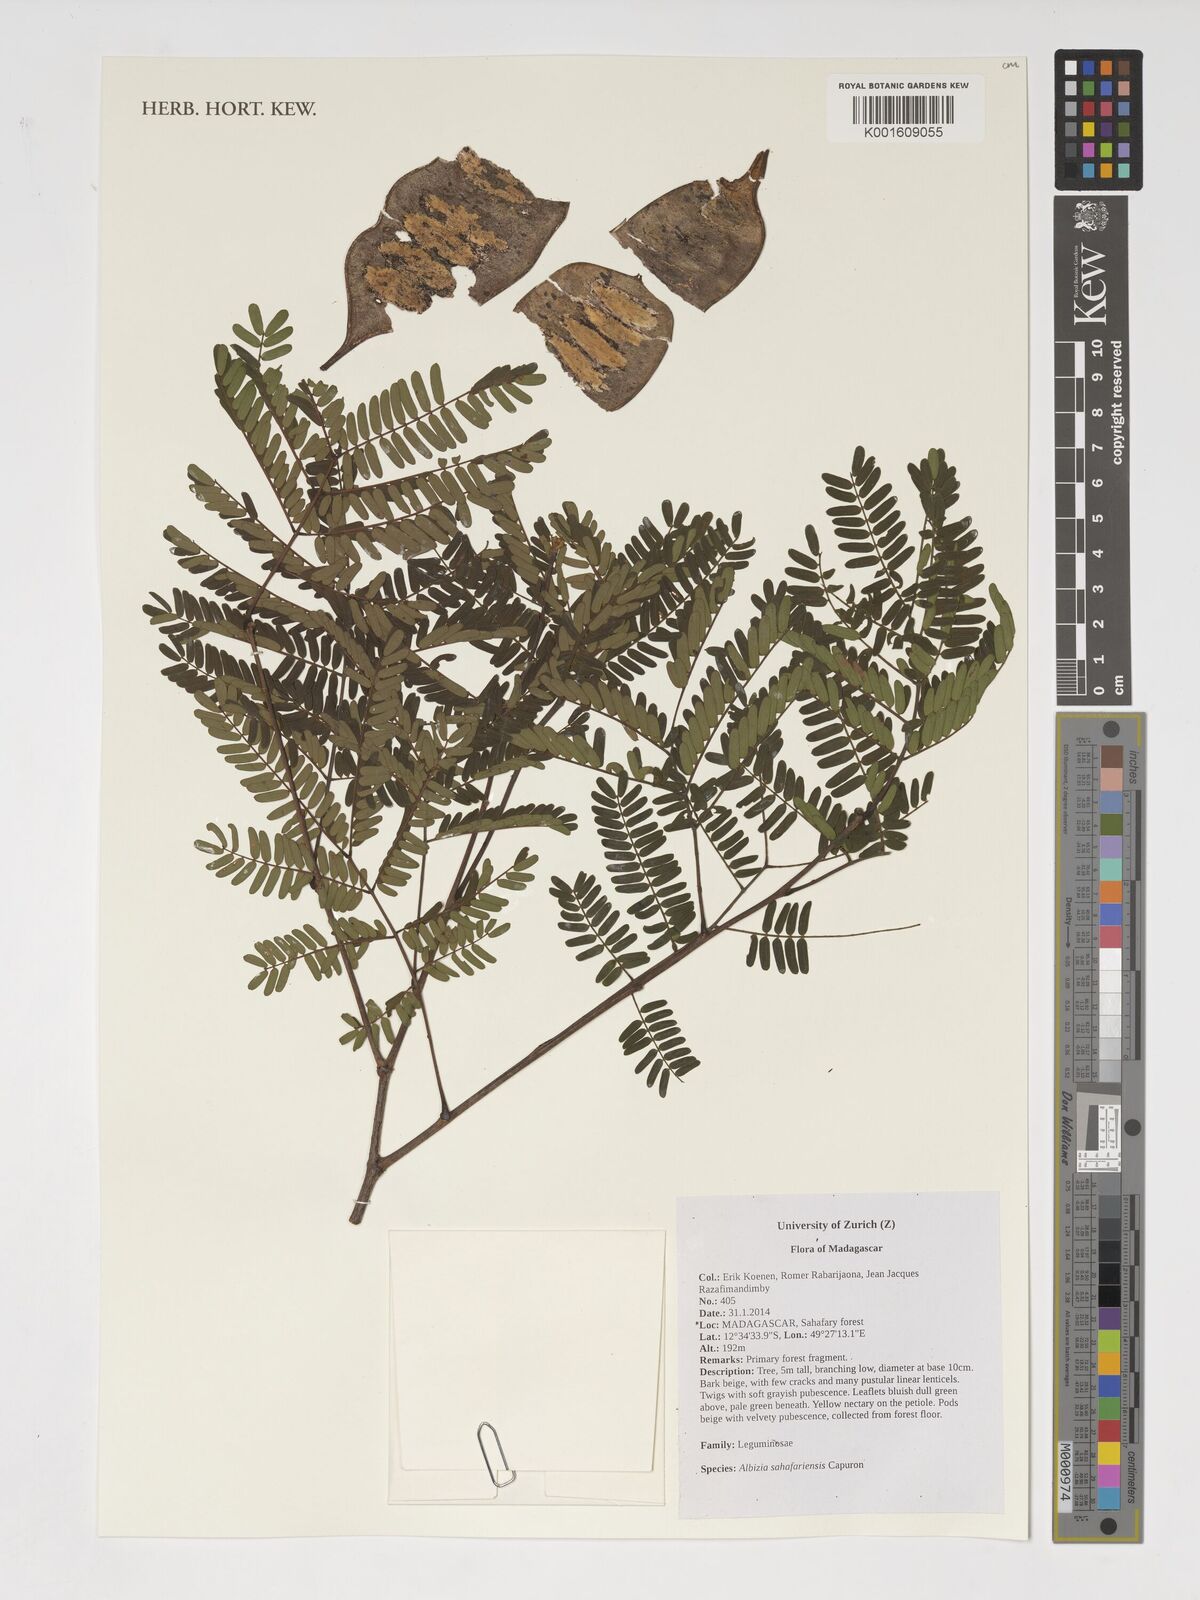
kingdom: Plantae
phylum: Tracheophyta
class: Magnoliopsida
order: Fabales
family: Fabaceae
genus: Albizia
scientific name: Albizia sahafariensis
